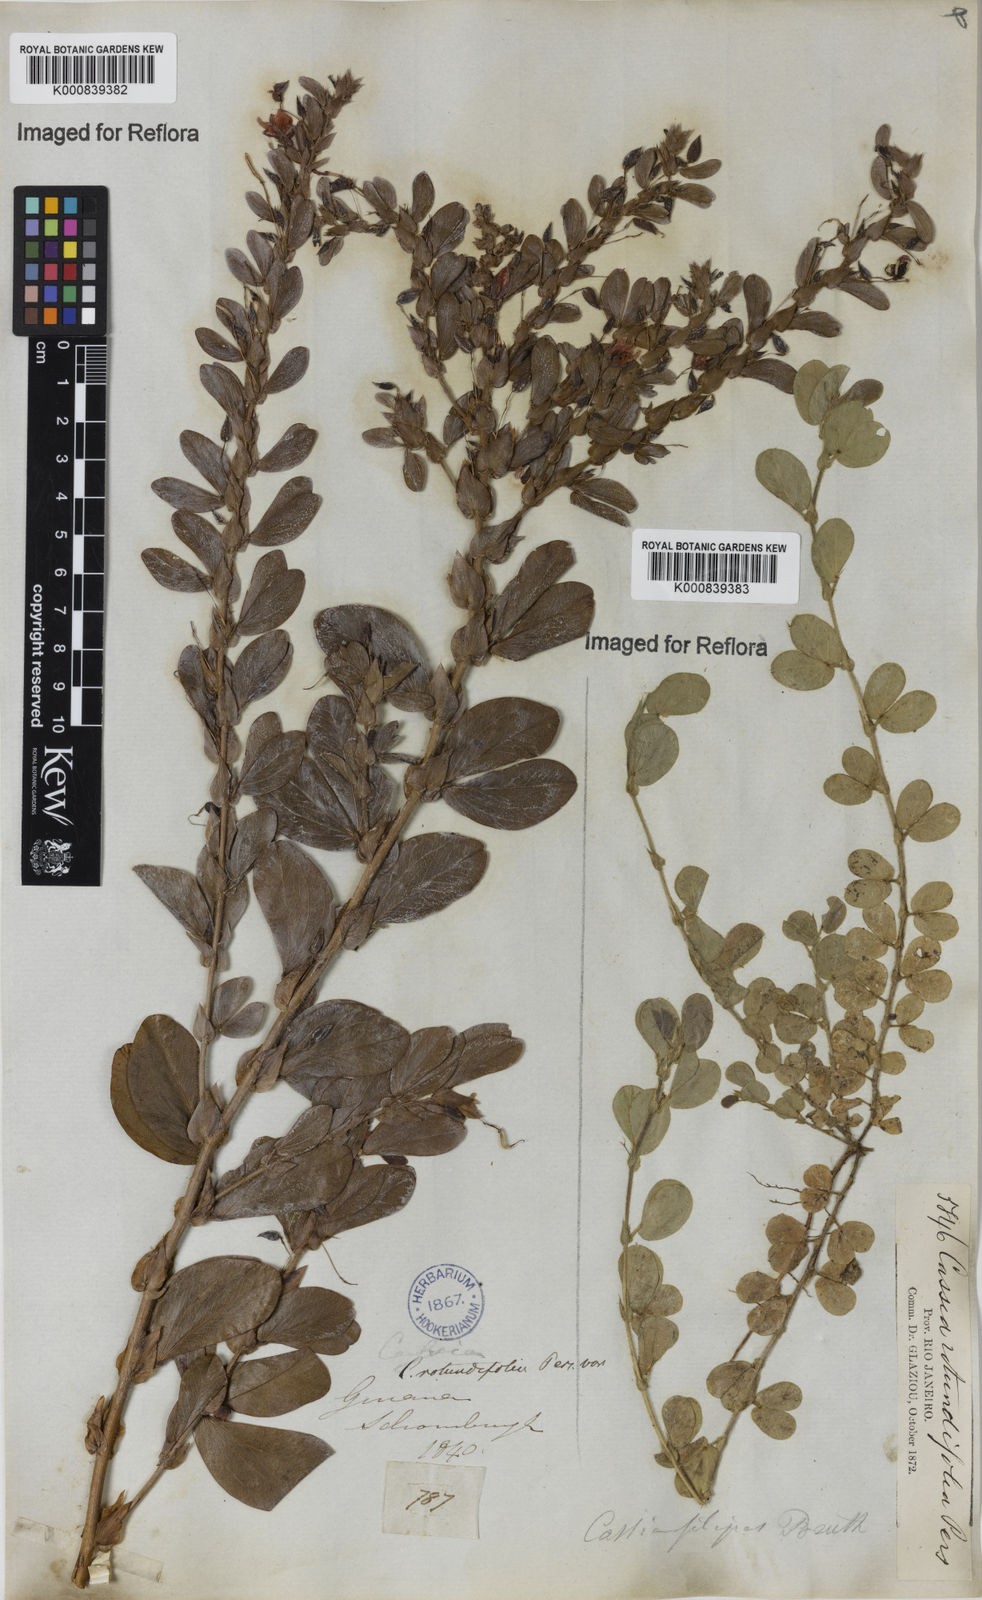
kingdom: Plantae
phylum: Tracheophyta
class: Magnoliopsida
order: Fabales
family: Fabaceae
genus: Chamaecrista
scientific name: Chamaecrista rotundifolia
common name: Round-leaf cassia
